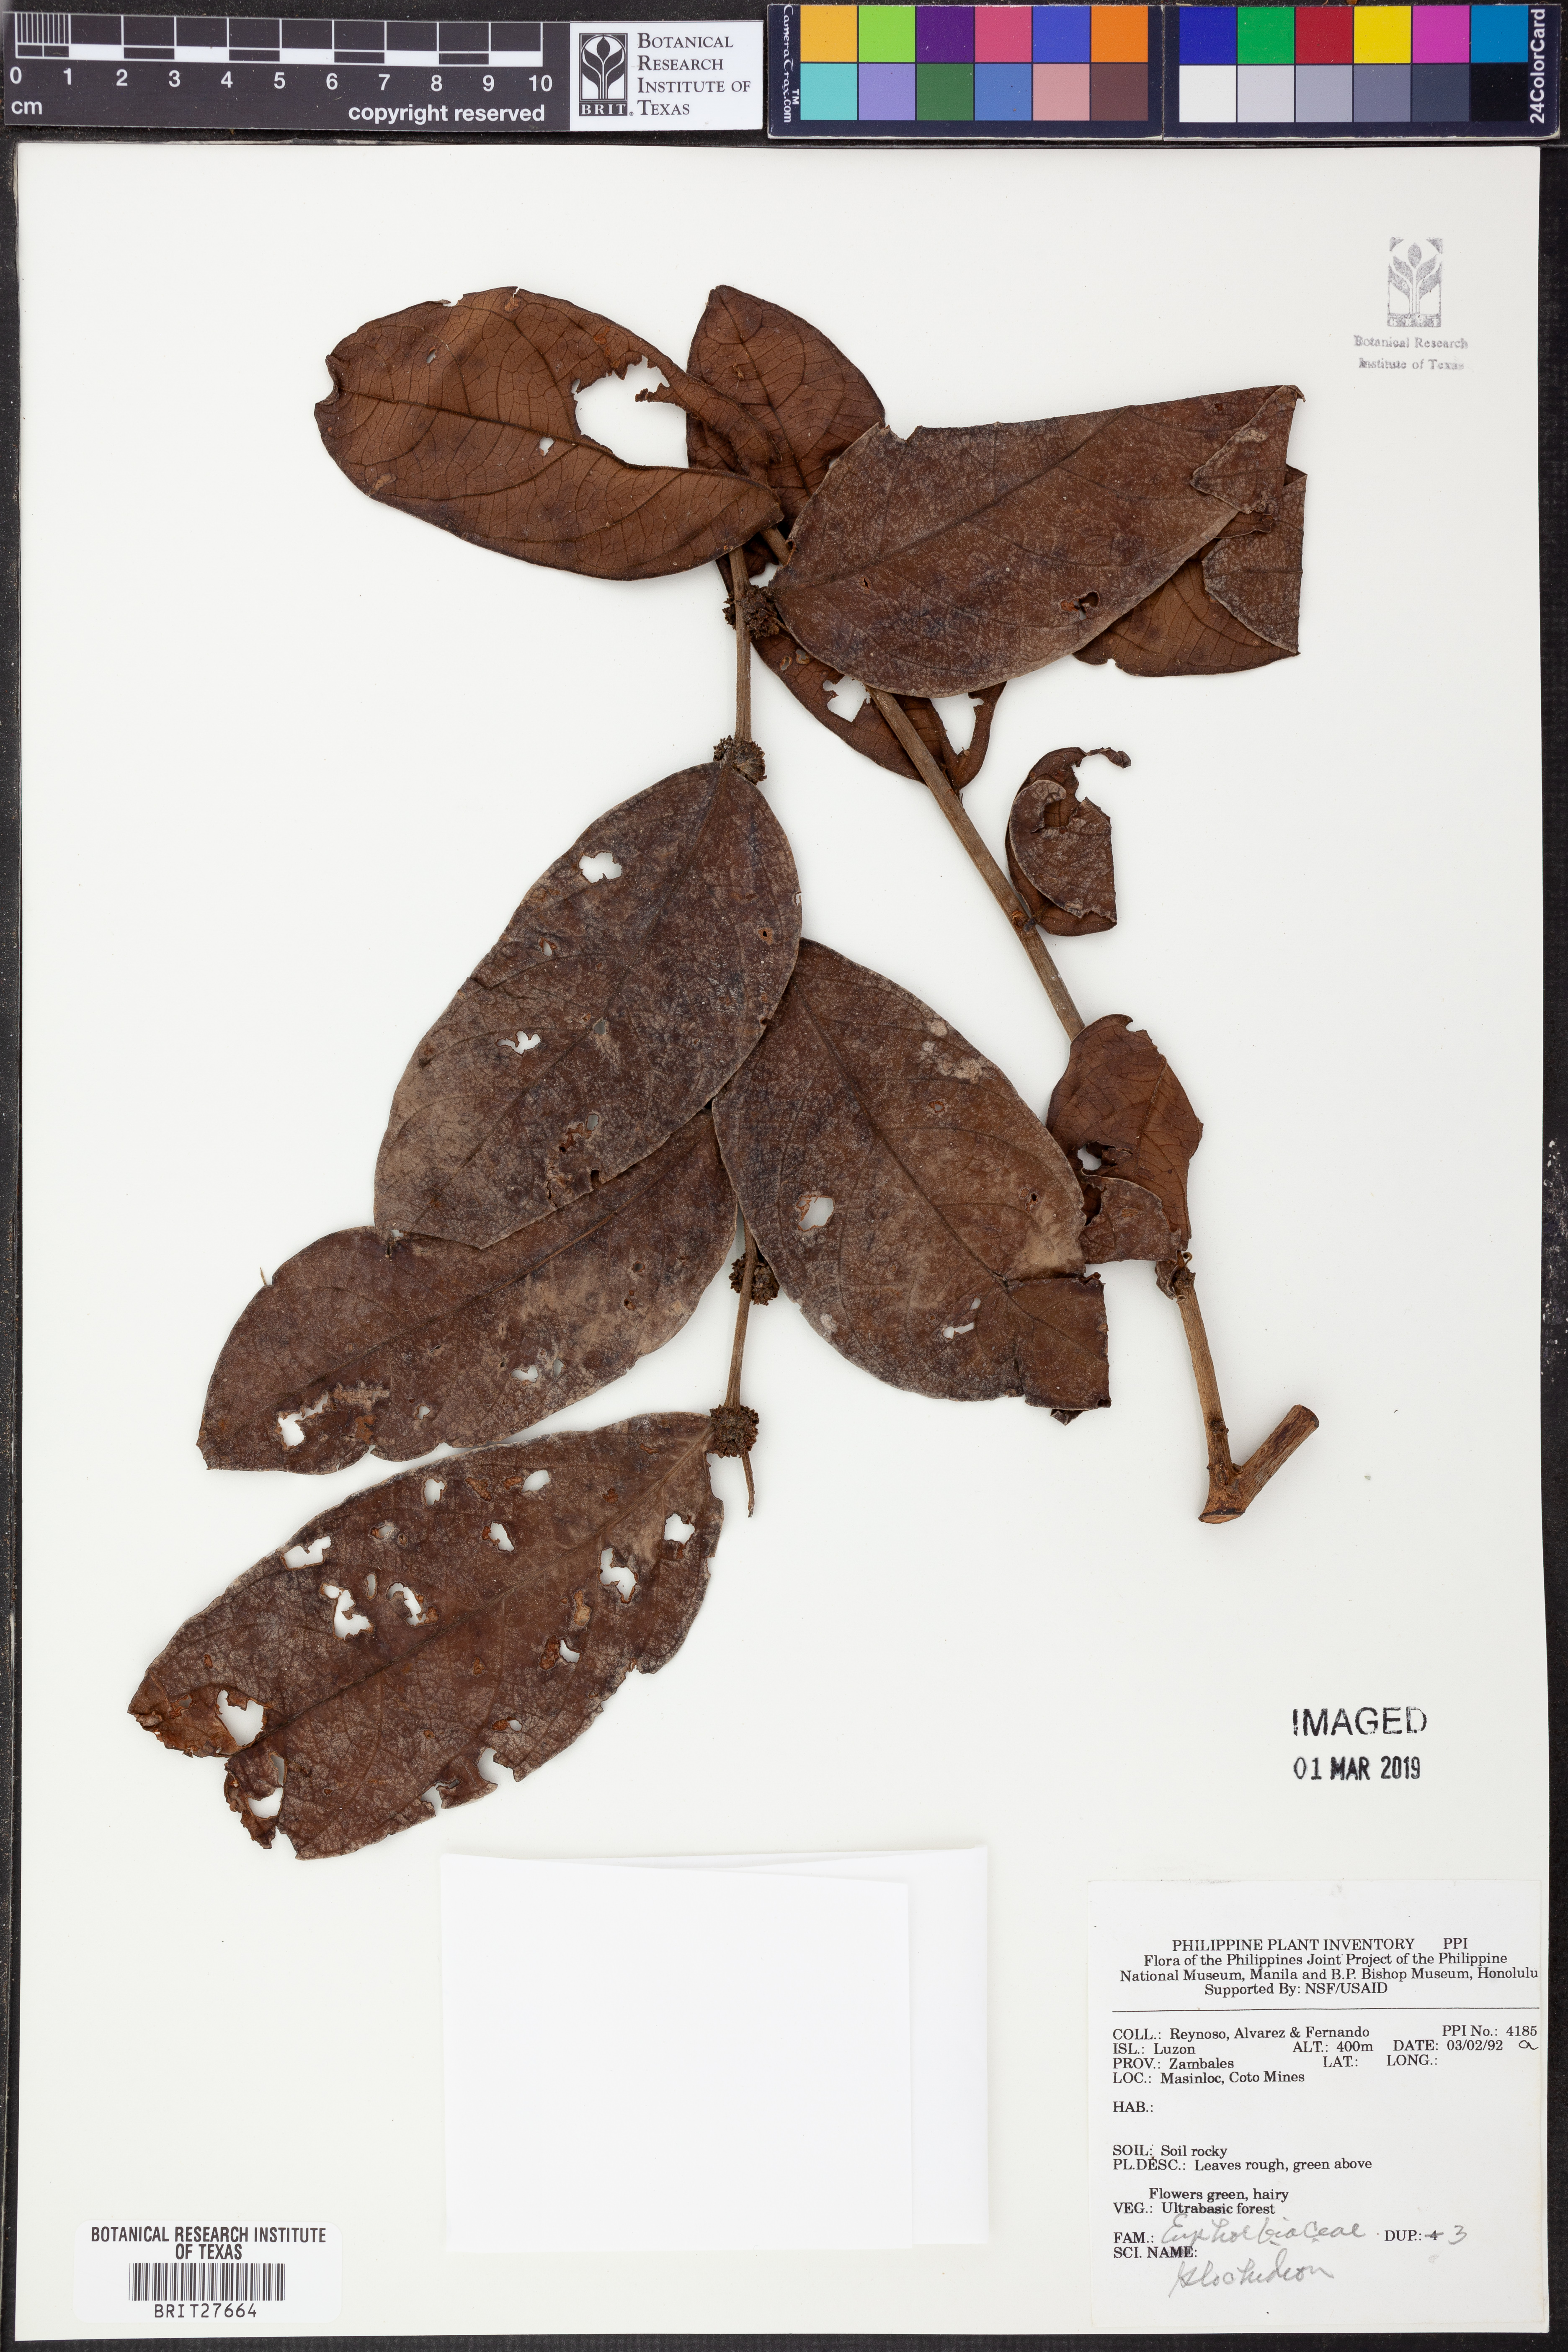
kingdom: Plantae
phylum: Tracheophyta
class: Magnoliopsida
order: Malpighiales
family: Phyllanthaceae
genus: Glochidion
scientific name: Glochidion
